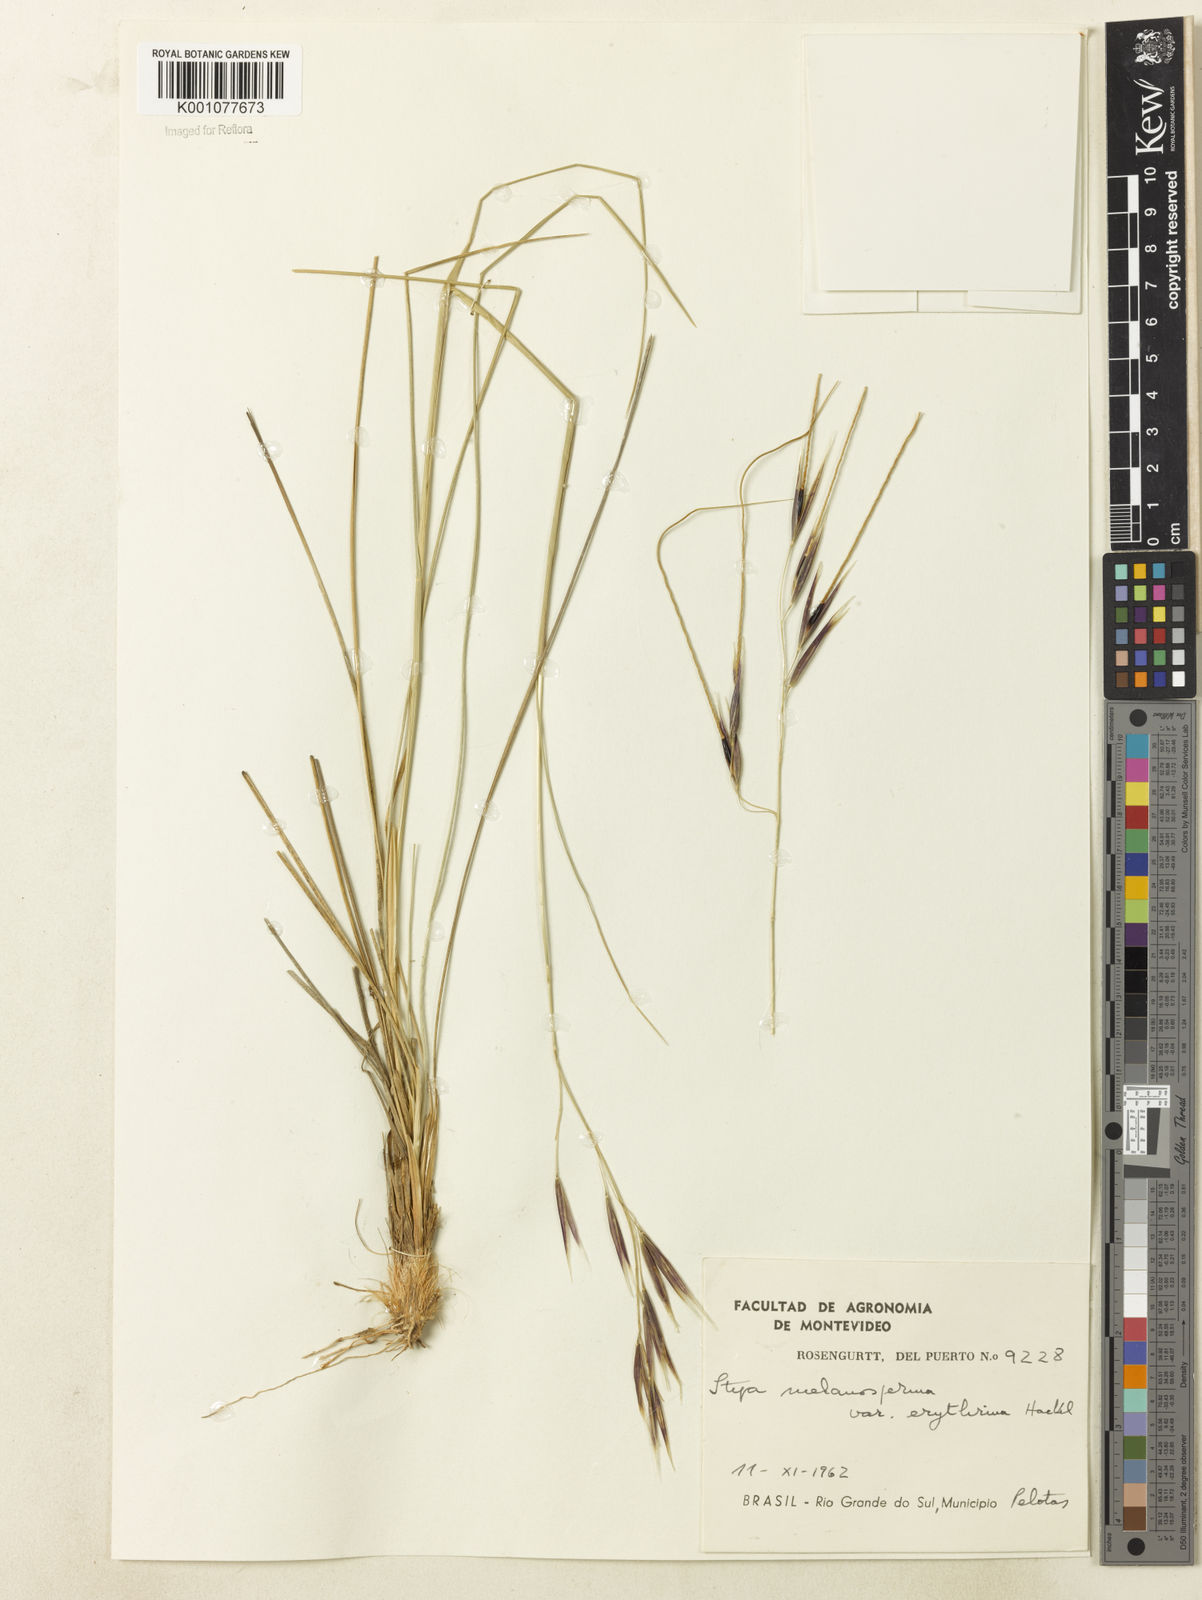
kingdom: Plantae
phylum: Tracheophyta
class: Liliopsida
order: Poales
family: Poaceae
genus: Nassella
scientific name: Nassella melanosperma
